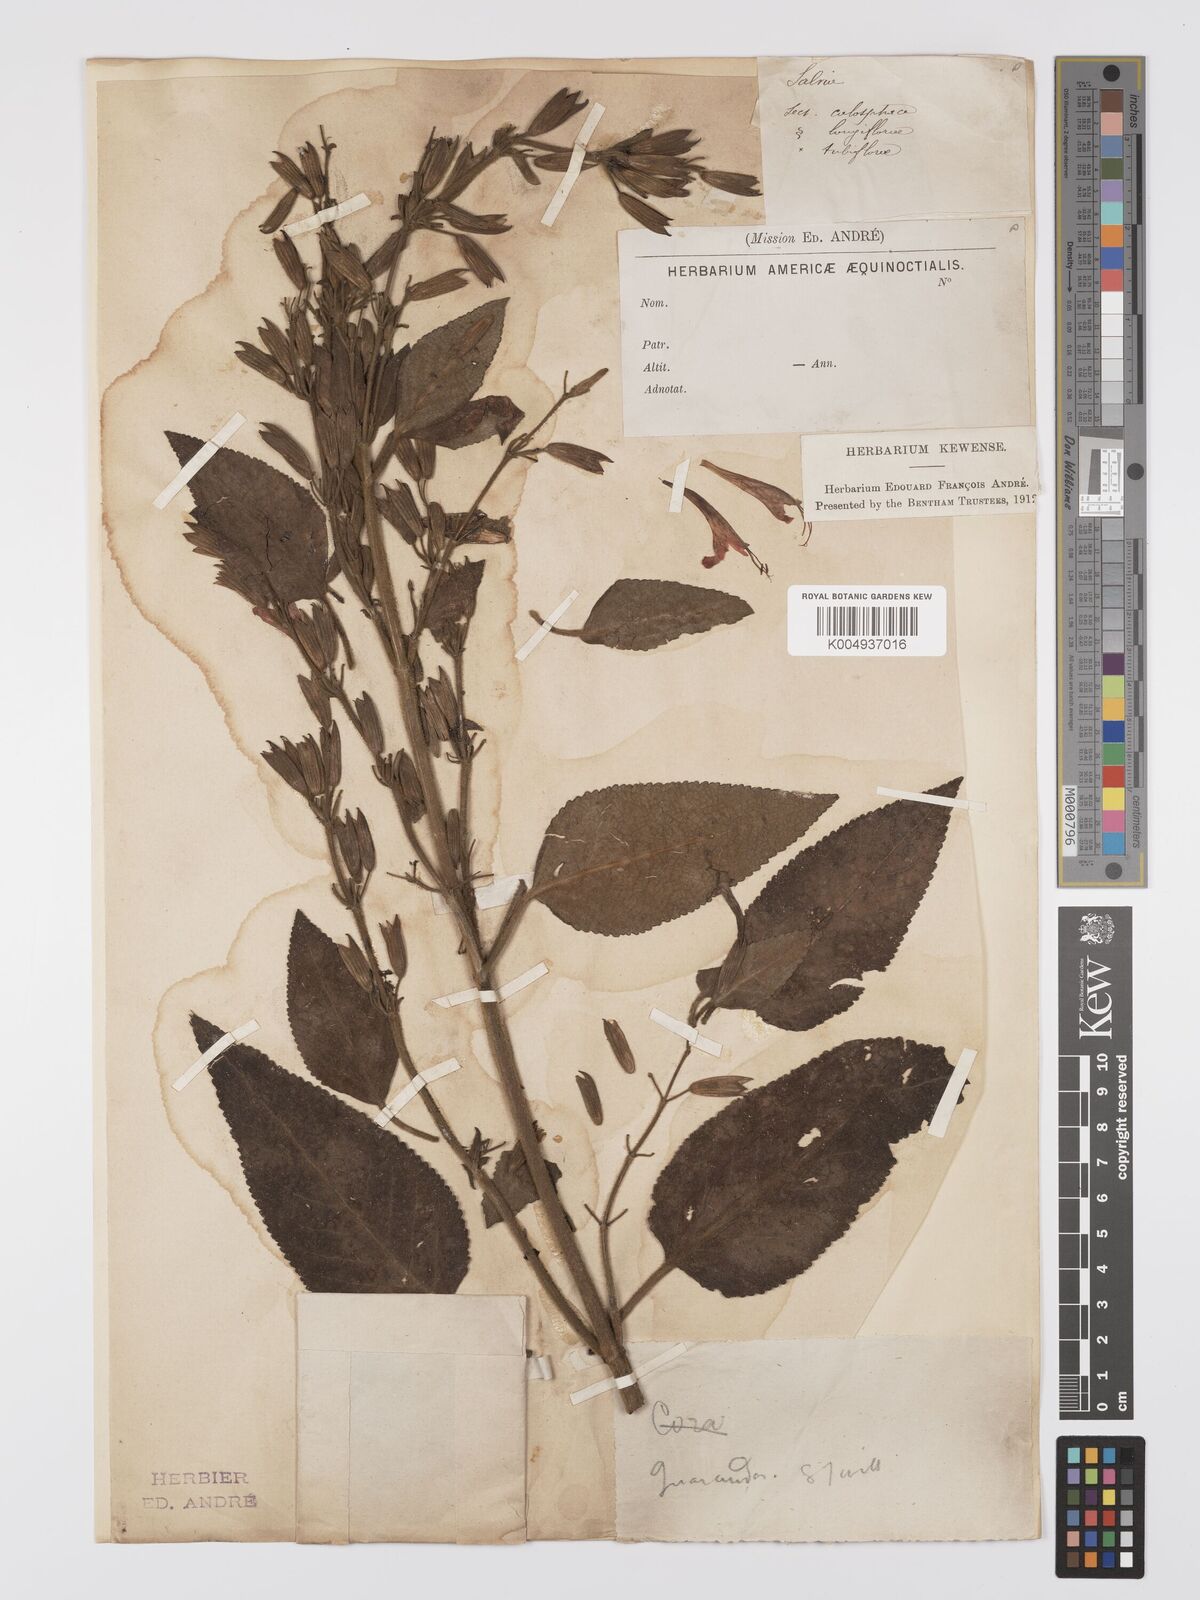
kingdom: Plantae
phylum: Tracheophyta
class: Magnoliopsida
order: Lamiales
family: Lamiaceae
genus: Salvia
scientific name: Salvia sprucei
